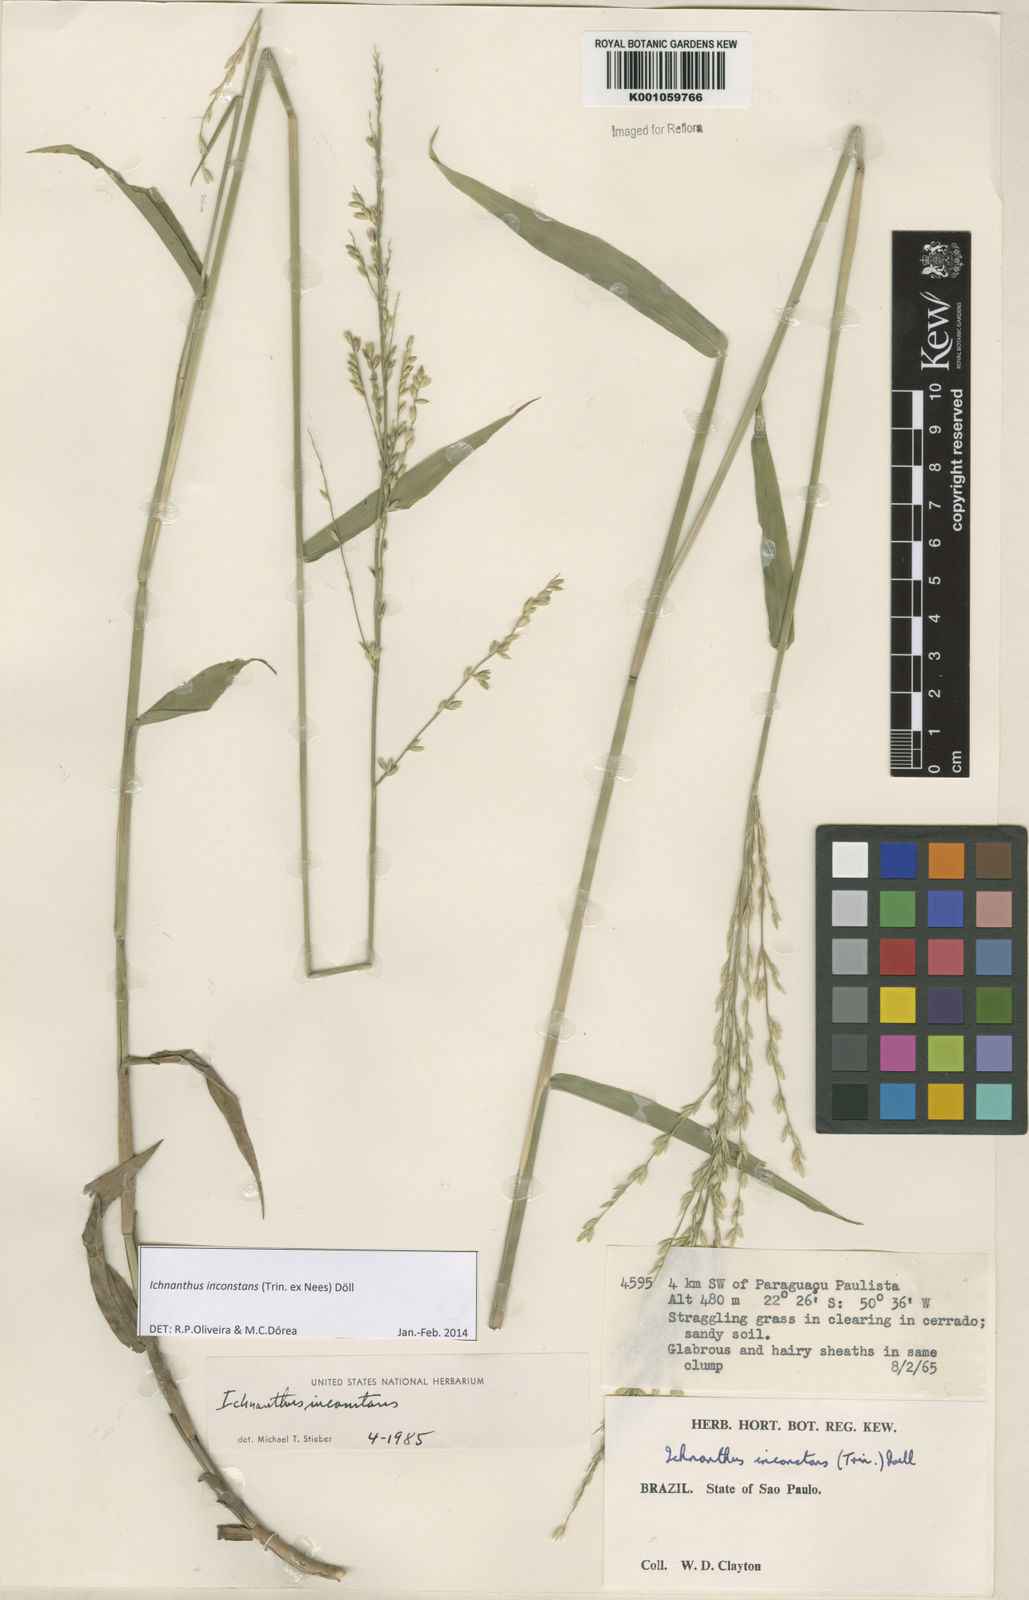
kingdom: Plantae
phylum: Tracheophyta
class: Liliopsida
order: Poales
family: Poaceae
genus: Ichnanthus
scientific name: Ichnanthus
